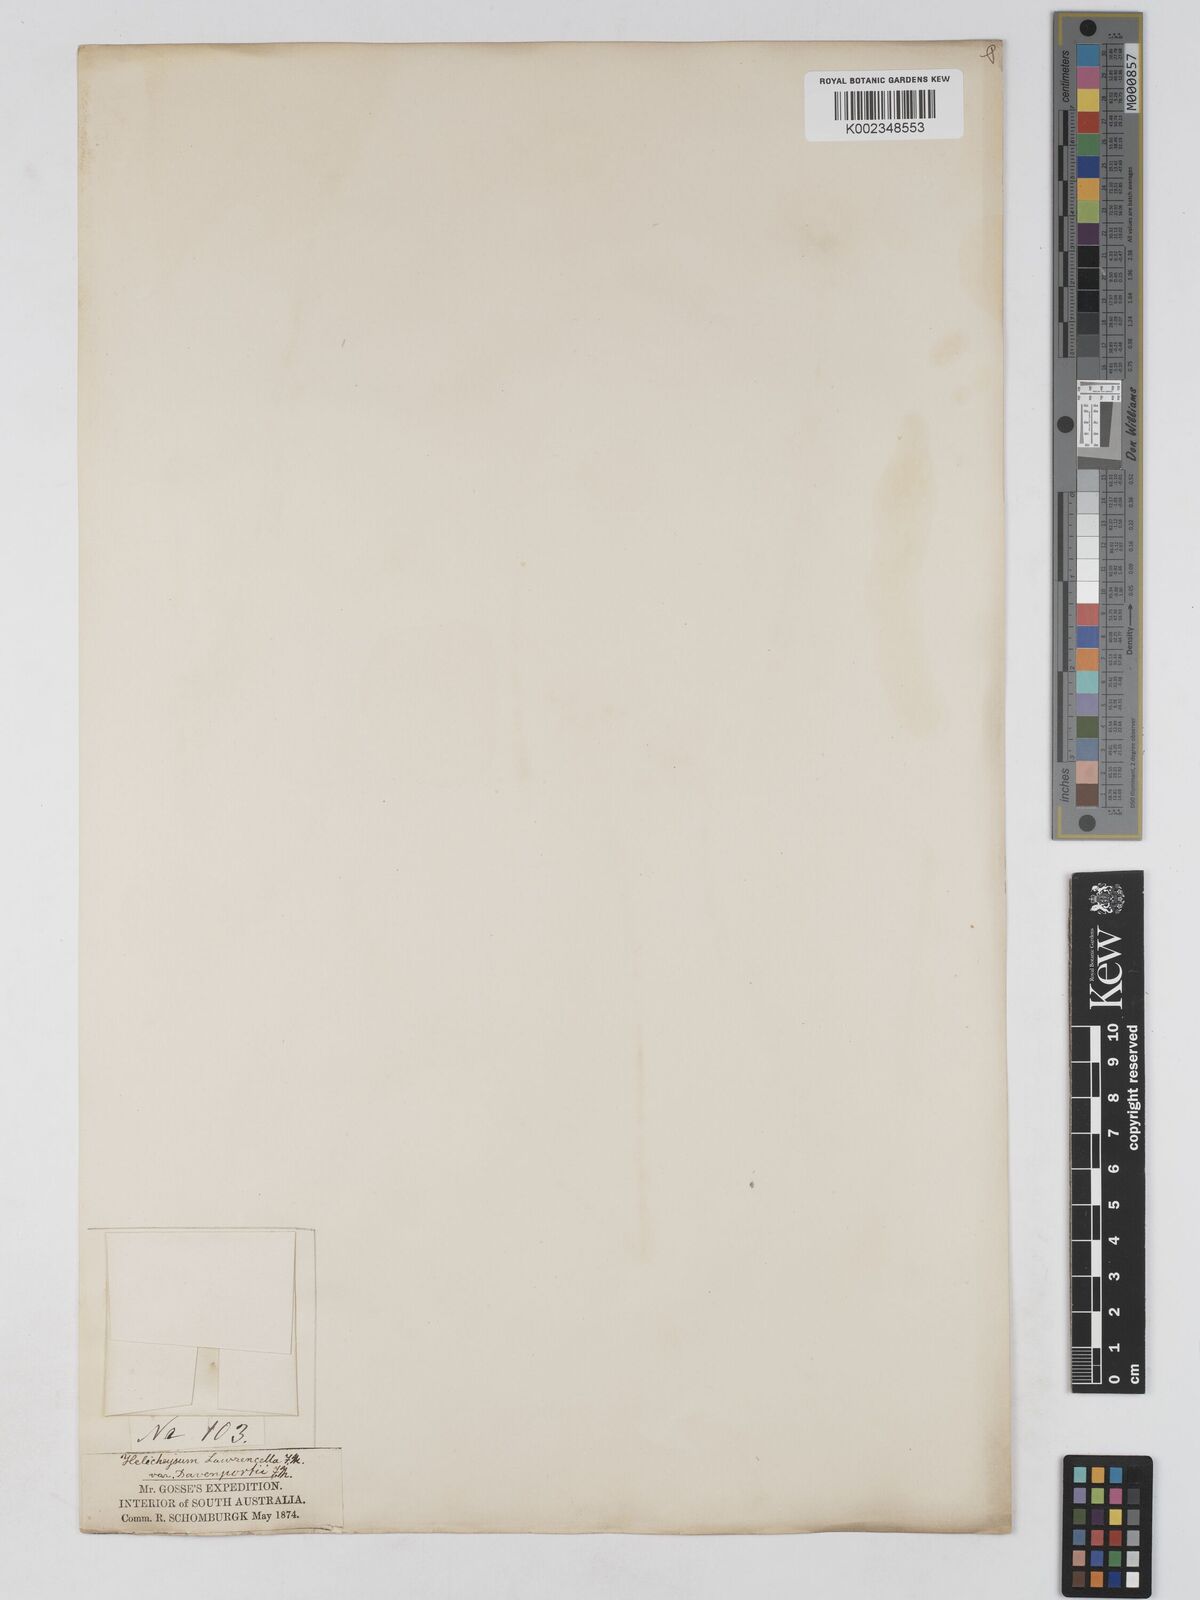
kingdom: Plantae
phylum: Tracheophyta
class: Magnoliopsida
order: Asterales
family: Asteraceae
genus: Lawrencella
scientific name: Lawrencella davenportii
